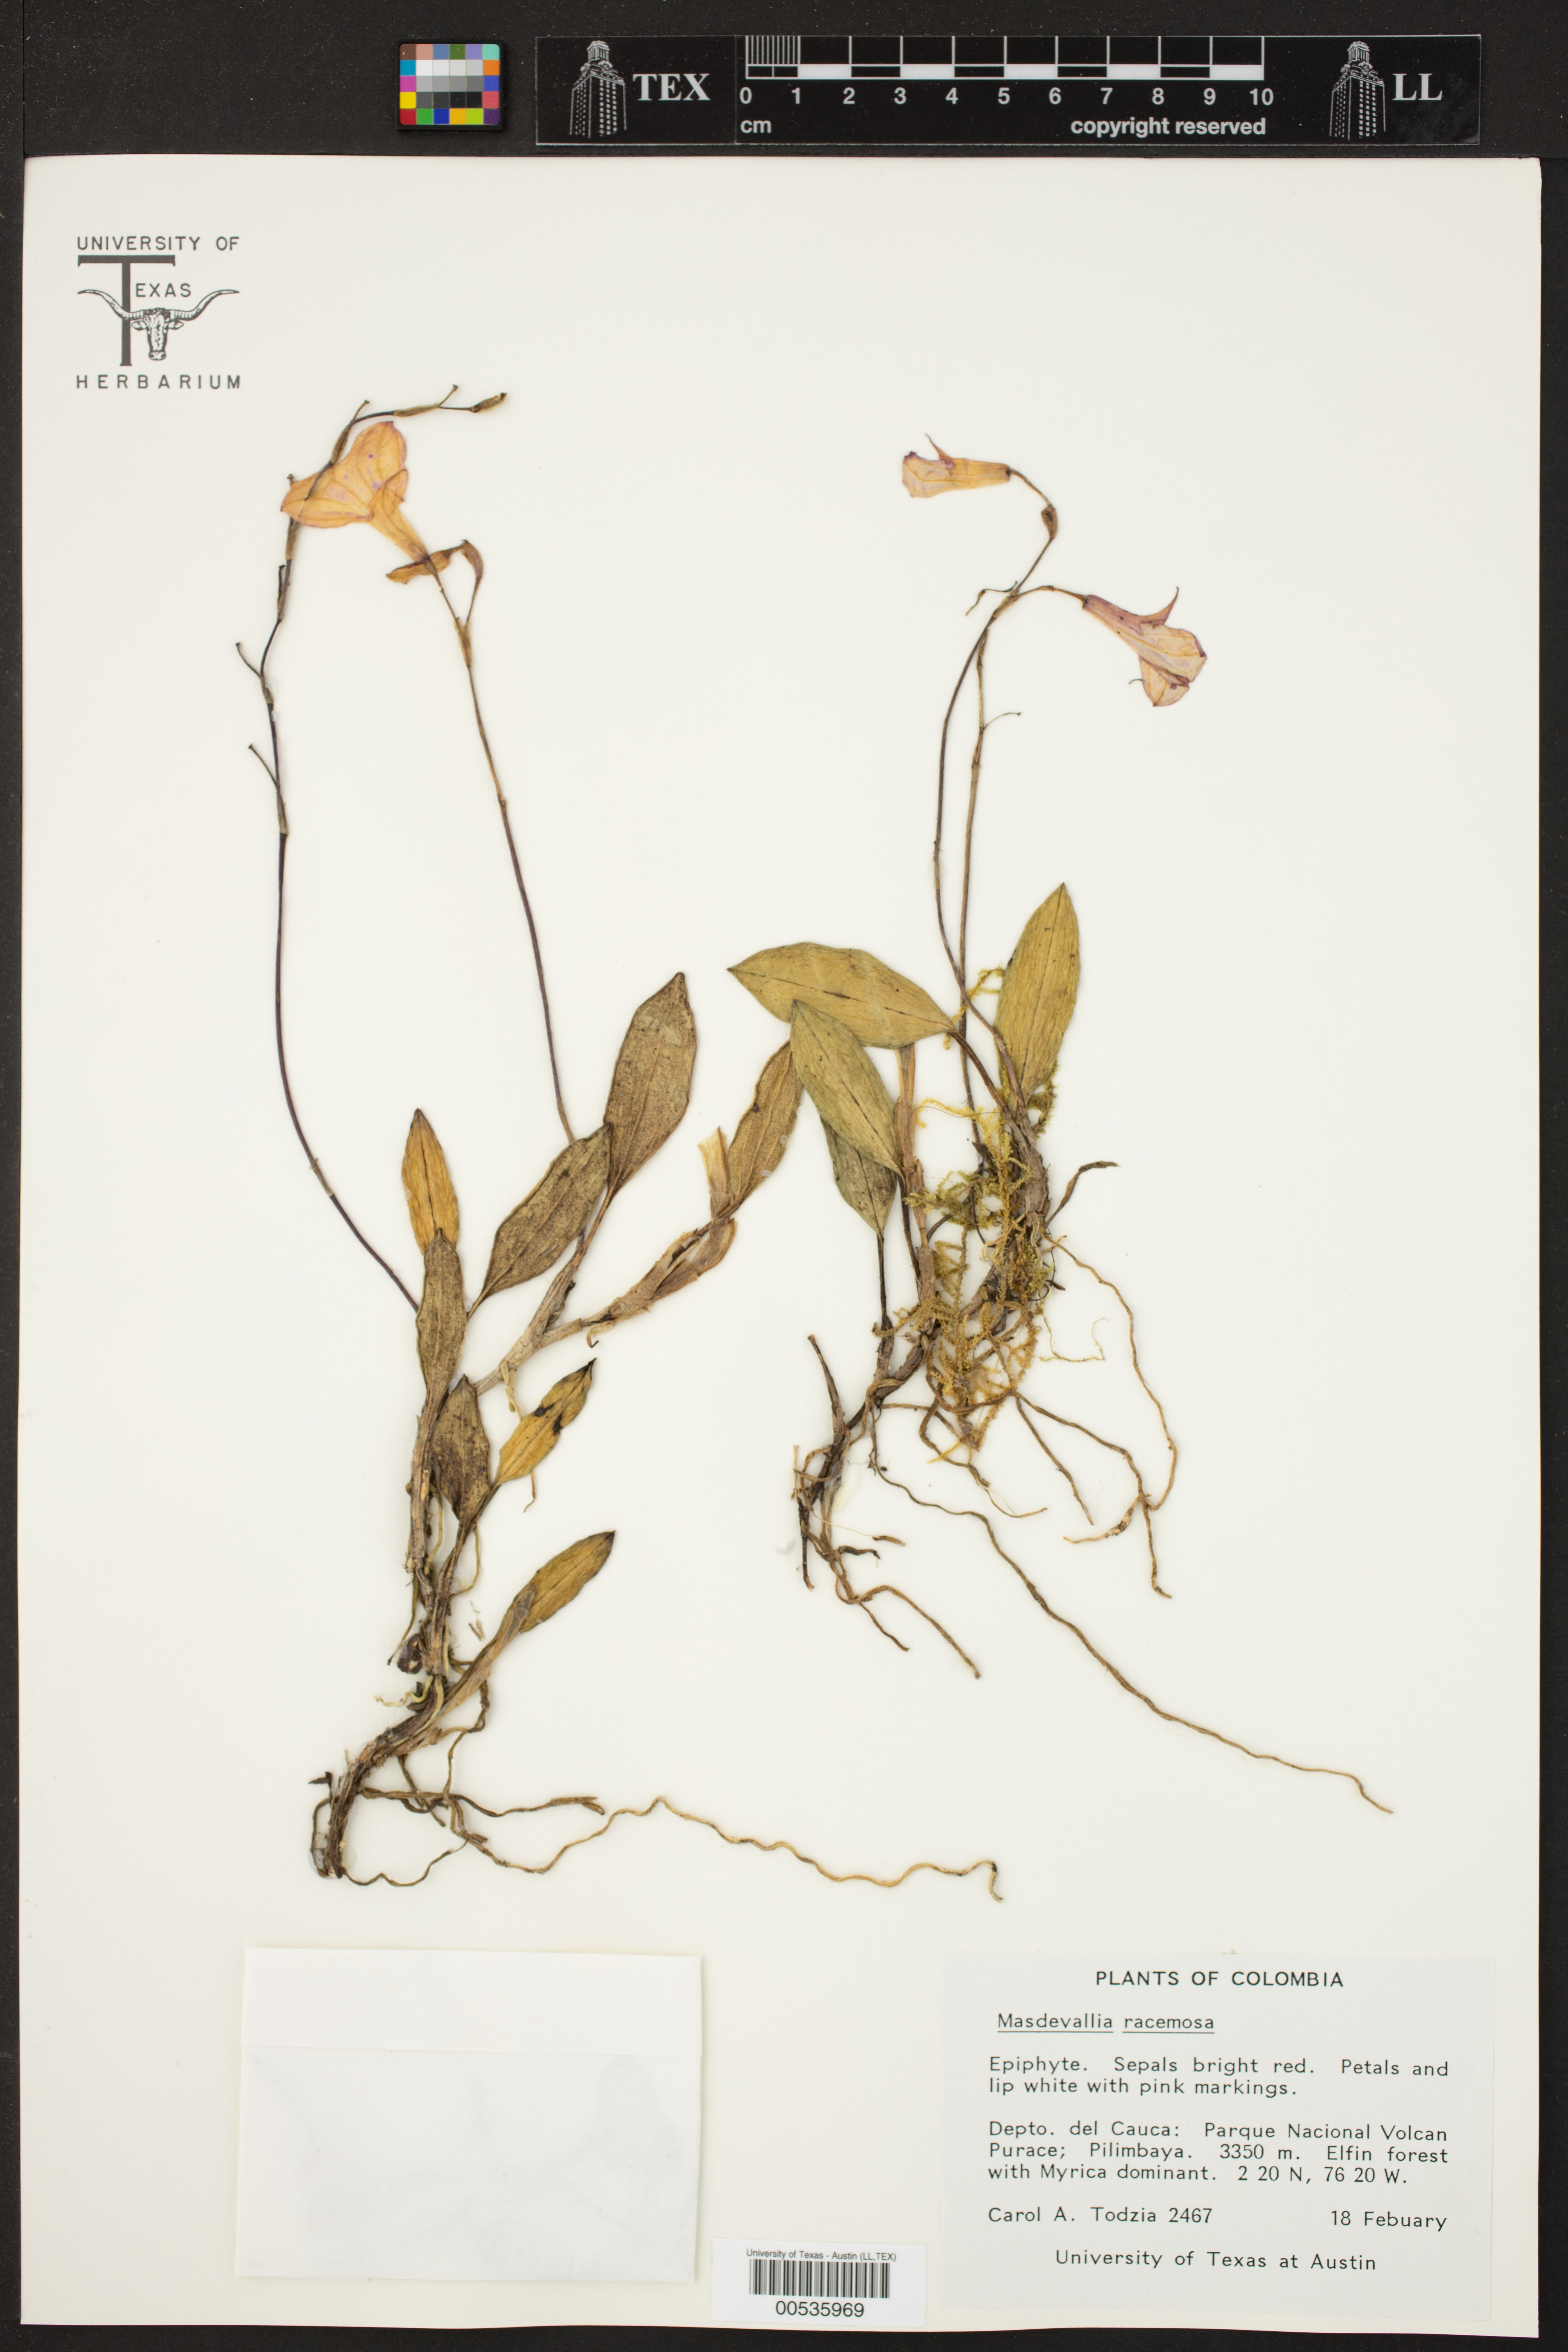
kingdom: Plantae
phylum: Tracheophyta
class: Liliopsida
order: Asparagales
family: Orchidaceae
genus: Masdevallia
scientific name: Masdevallia racemosa
